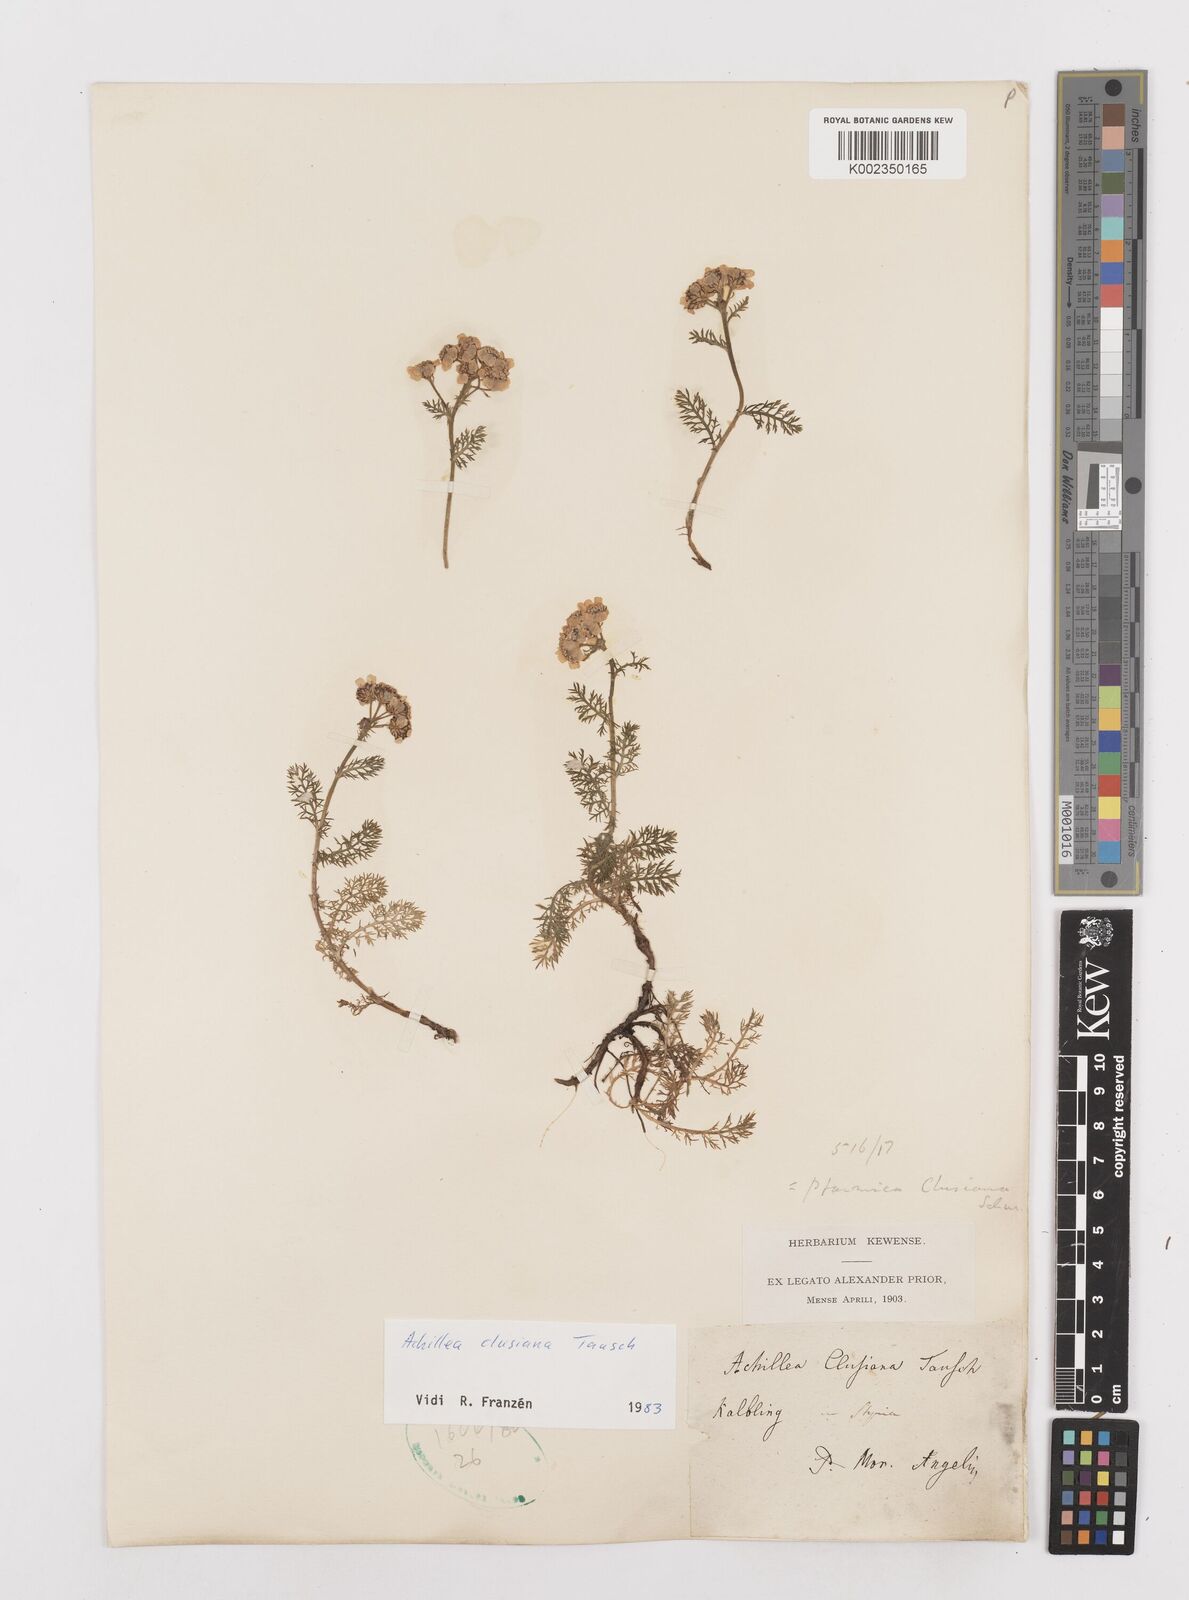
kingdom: Plantae
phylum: Tracheophyta
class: Magnoliopsida
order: Asterales
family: Asteraceae
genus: Achillea
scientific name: Achillea clusiana
